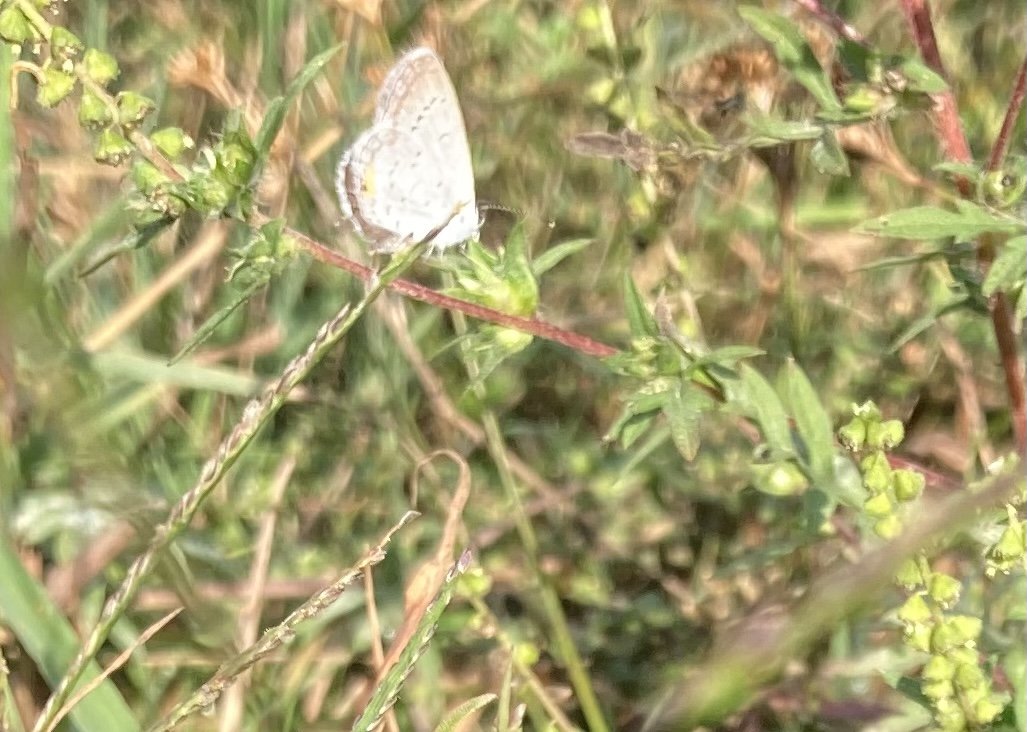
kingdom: Animalia
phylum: Arthropoda
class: Insecta
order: Lepidoptera
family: Lycaenidae
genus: Elkalyce
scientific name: Elkalyce comyntas
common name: Eastern Tailed-Blue
